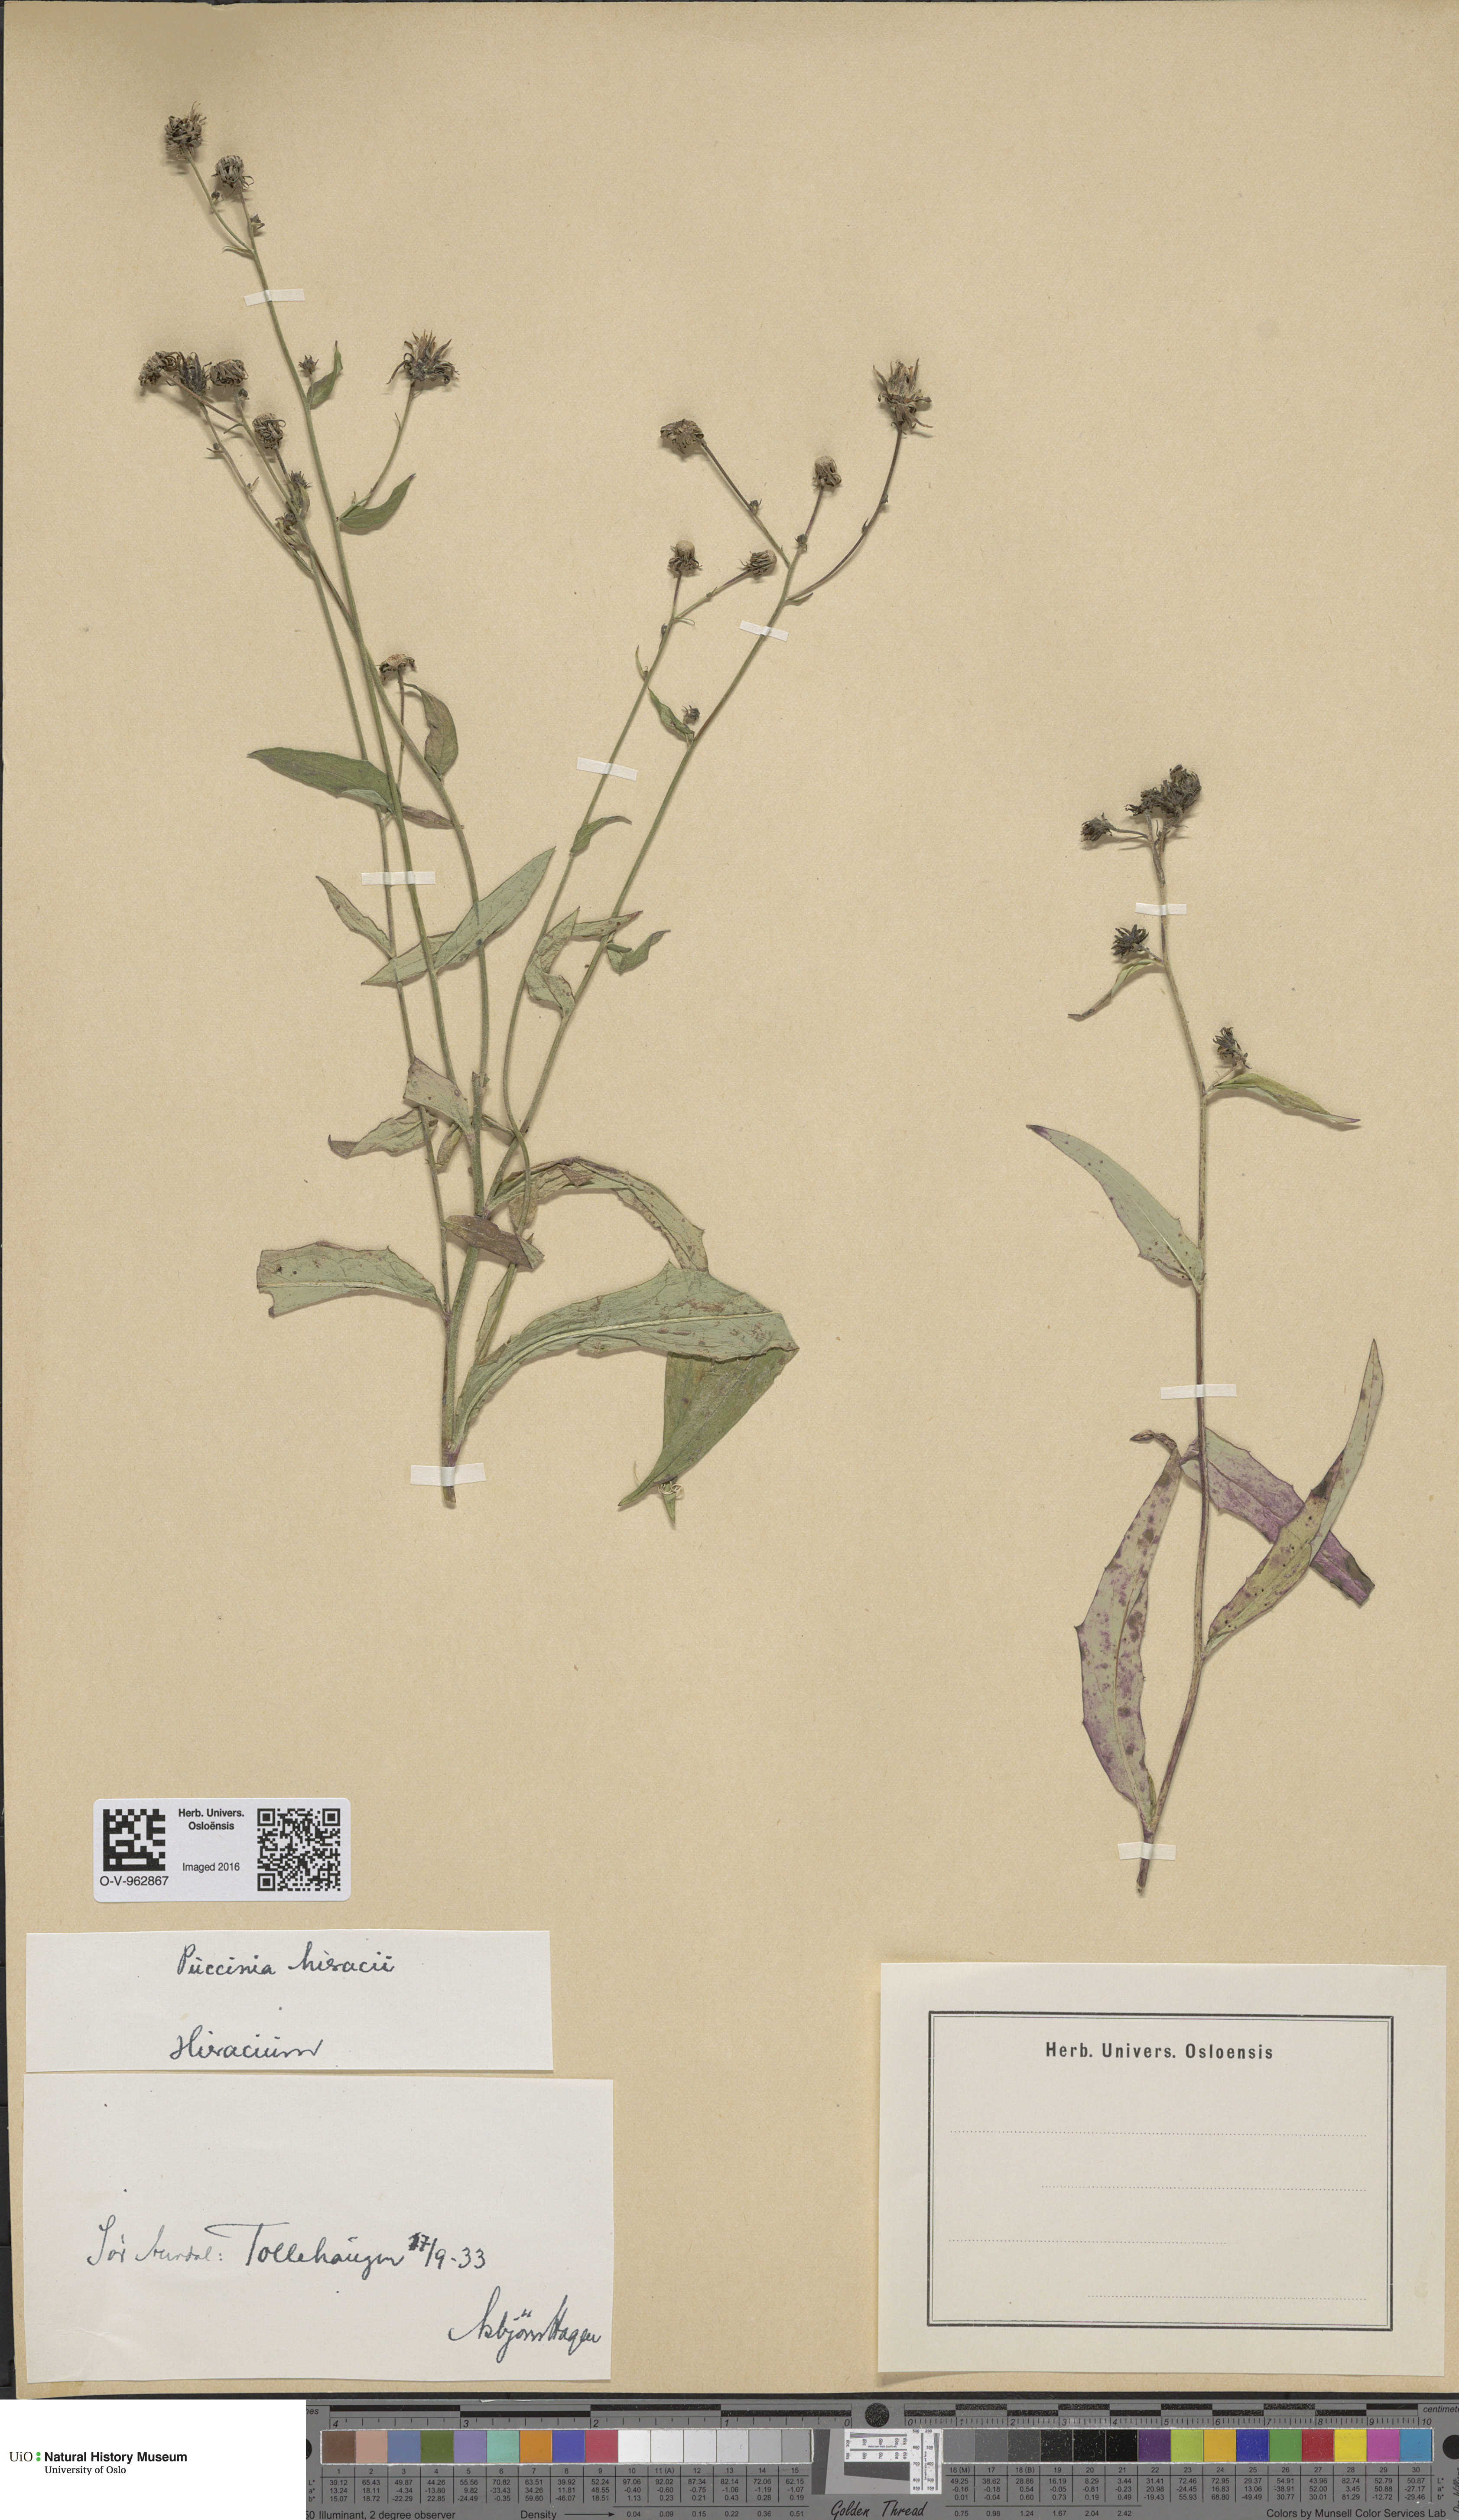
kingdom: Plantae
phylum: Tracheophyta
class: Magnoliopsida
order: Asterales
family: Asteraceae
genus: Hieracium
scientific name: Hieracium
